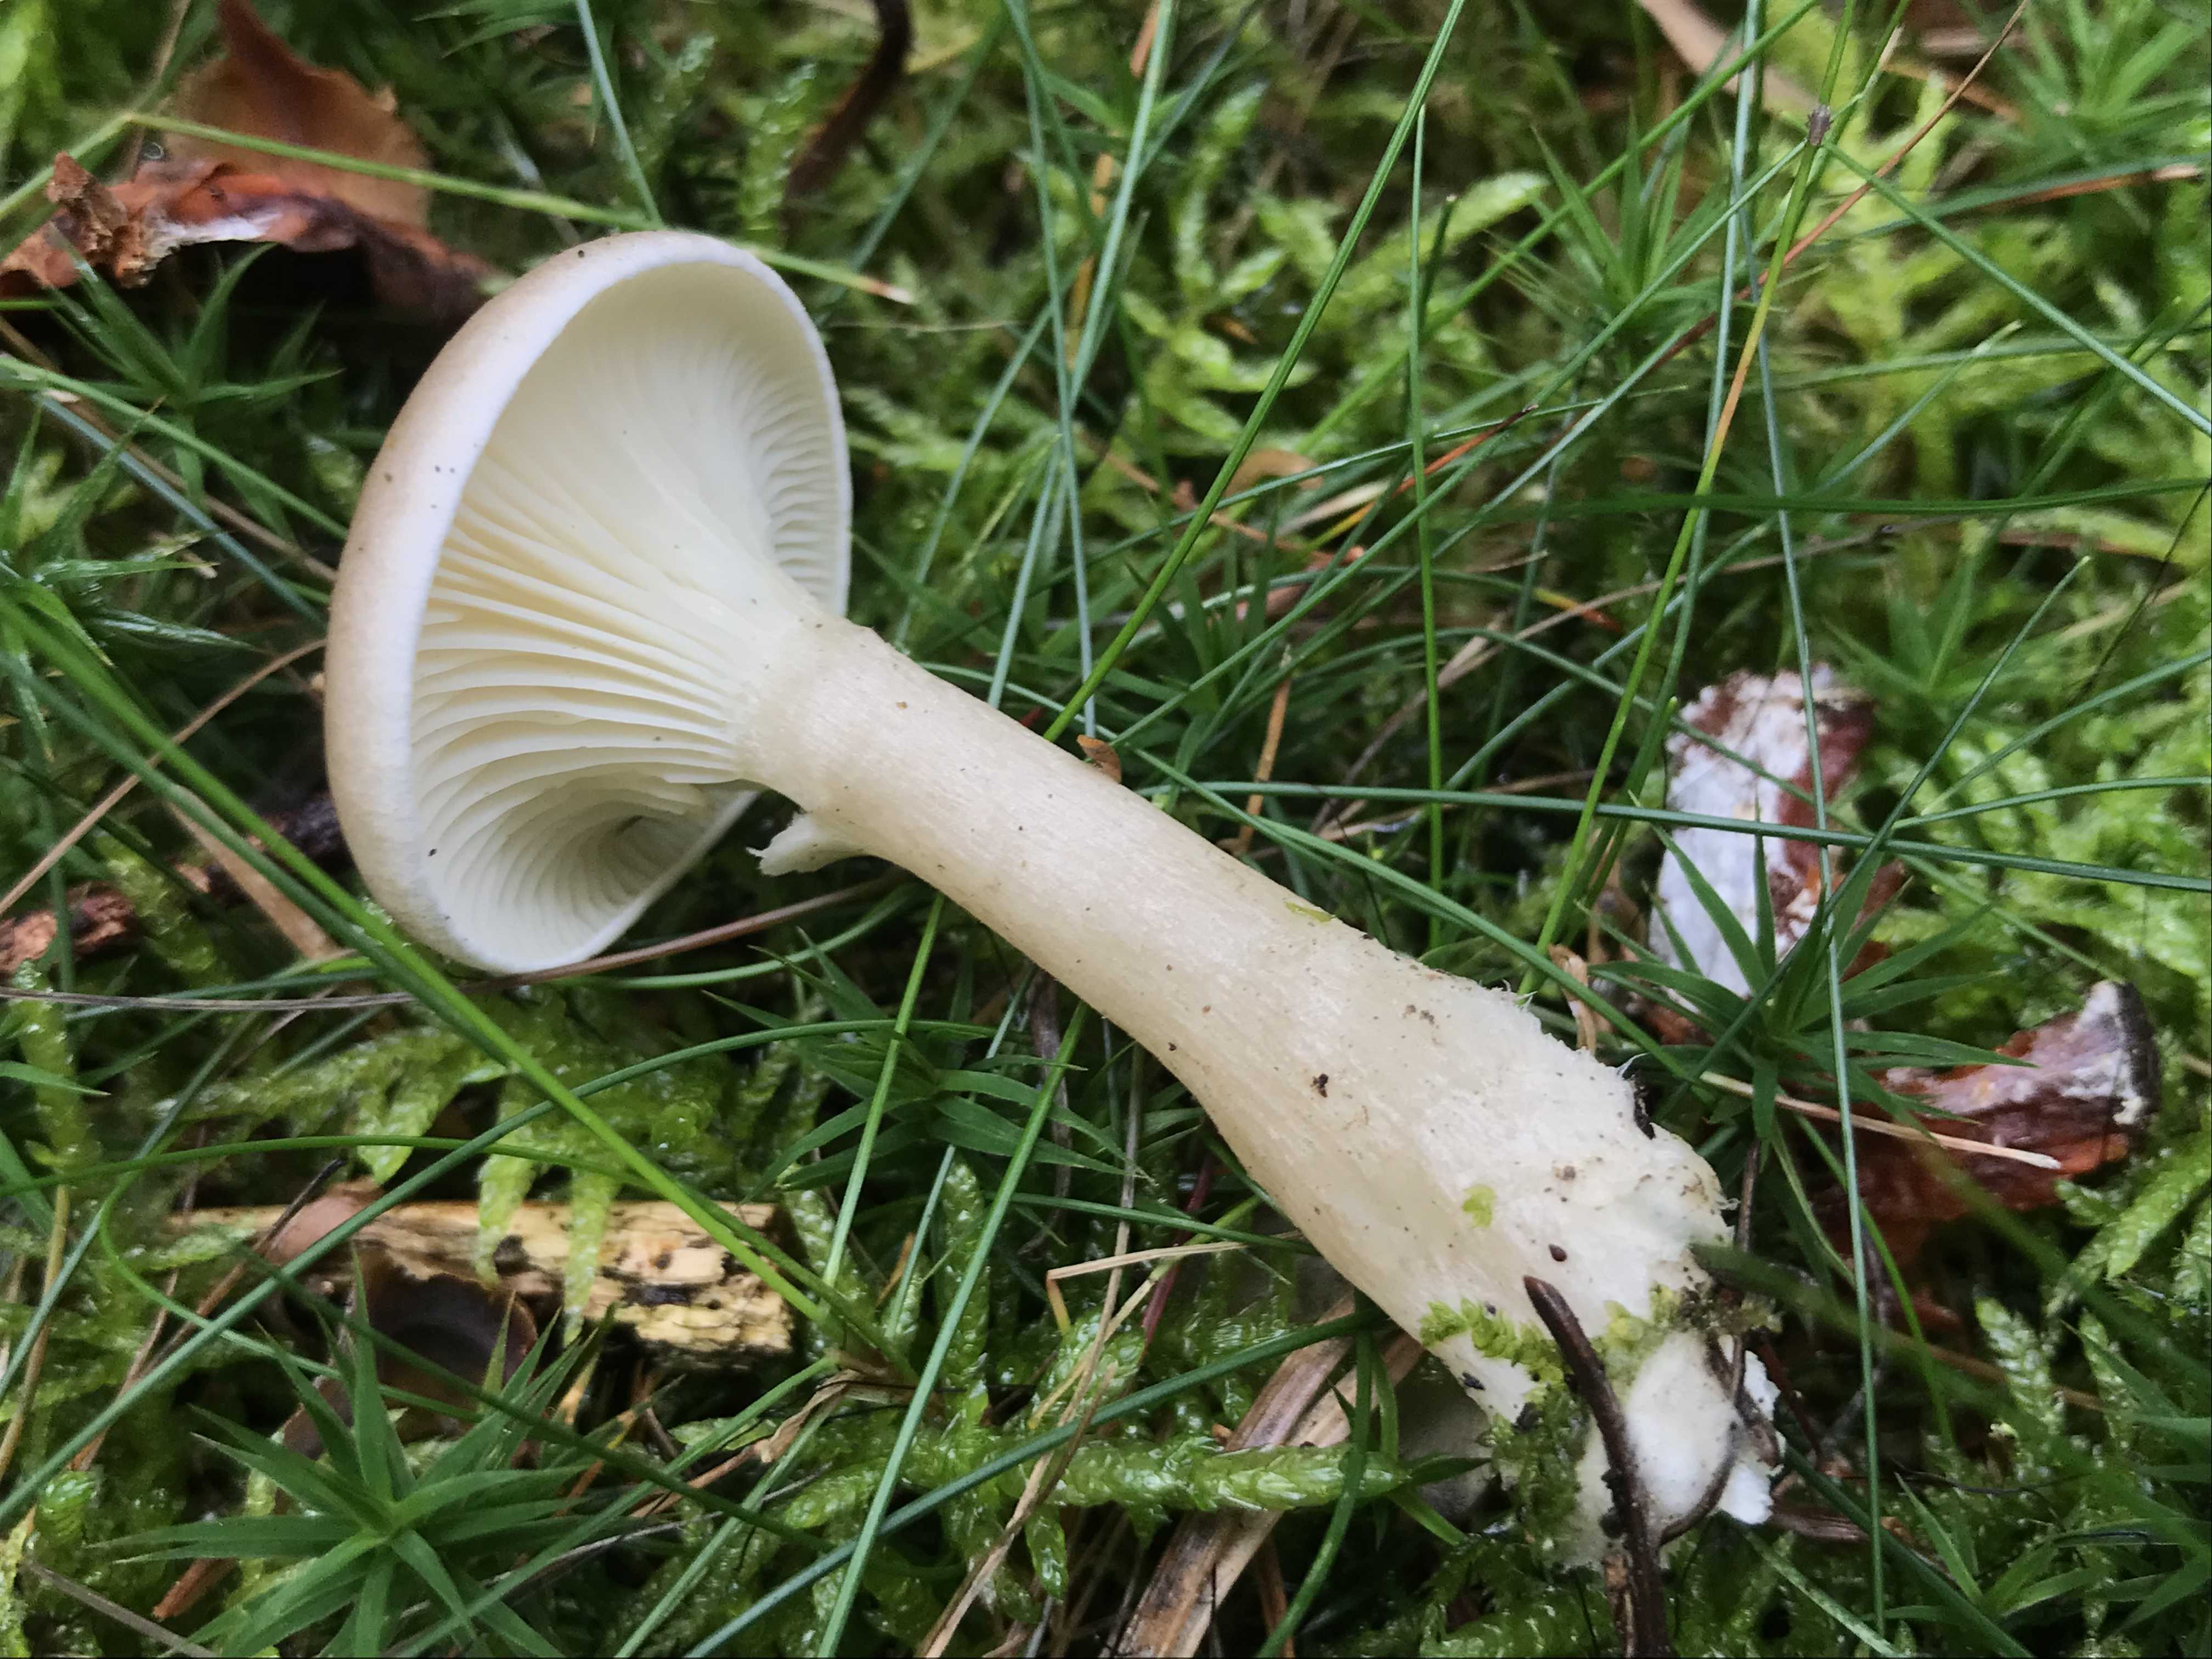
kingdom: Fungi
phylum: Basidiomycota
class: Agaricomycetes
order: Agaricales
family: Hygrophoraceae
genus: Ampulloclitocybe
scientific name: Ampulloclitocybe clavipes
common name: køllefod
